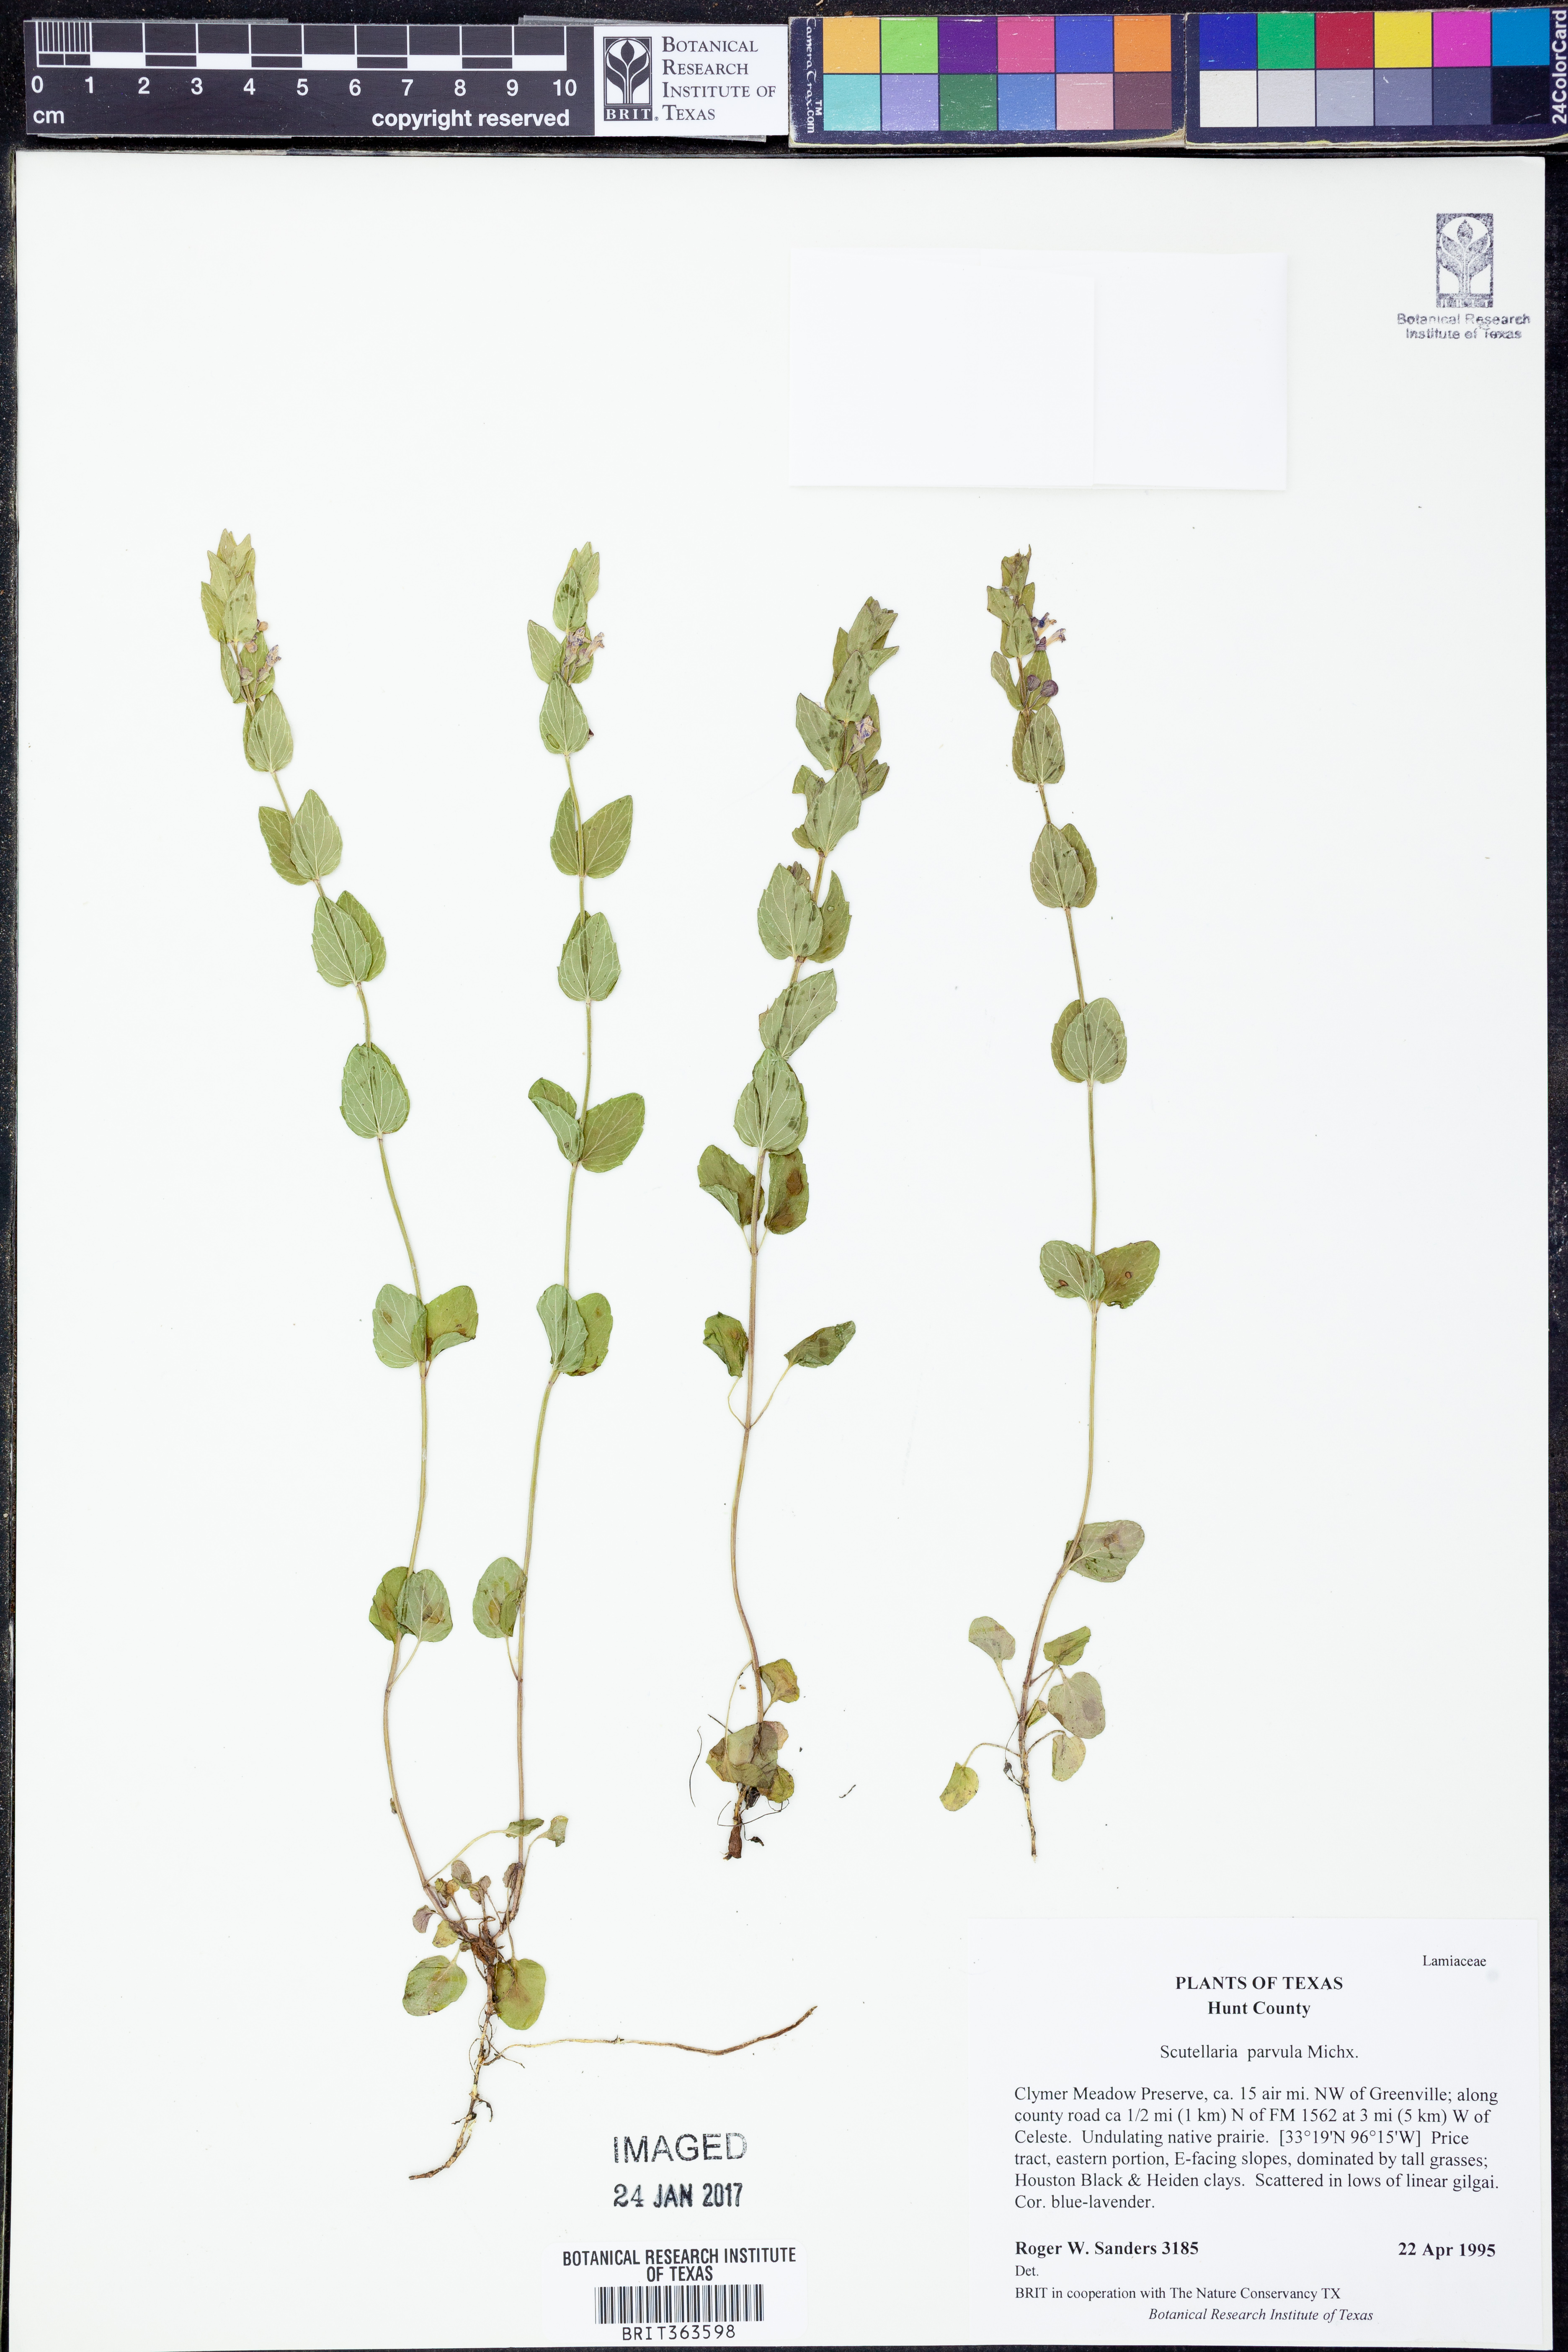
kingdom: Plantae
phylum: Tracheophyta
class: Magnoliopsida
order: Lamiales
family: Lamiaceae
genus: Scutellaria
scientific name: Scutellaria parvula
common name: Little scullcap
